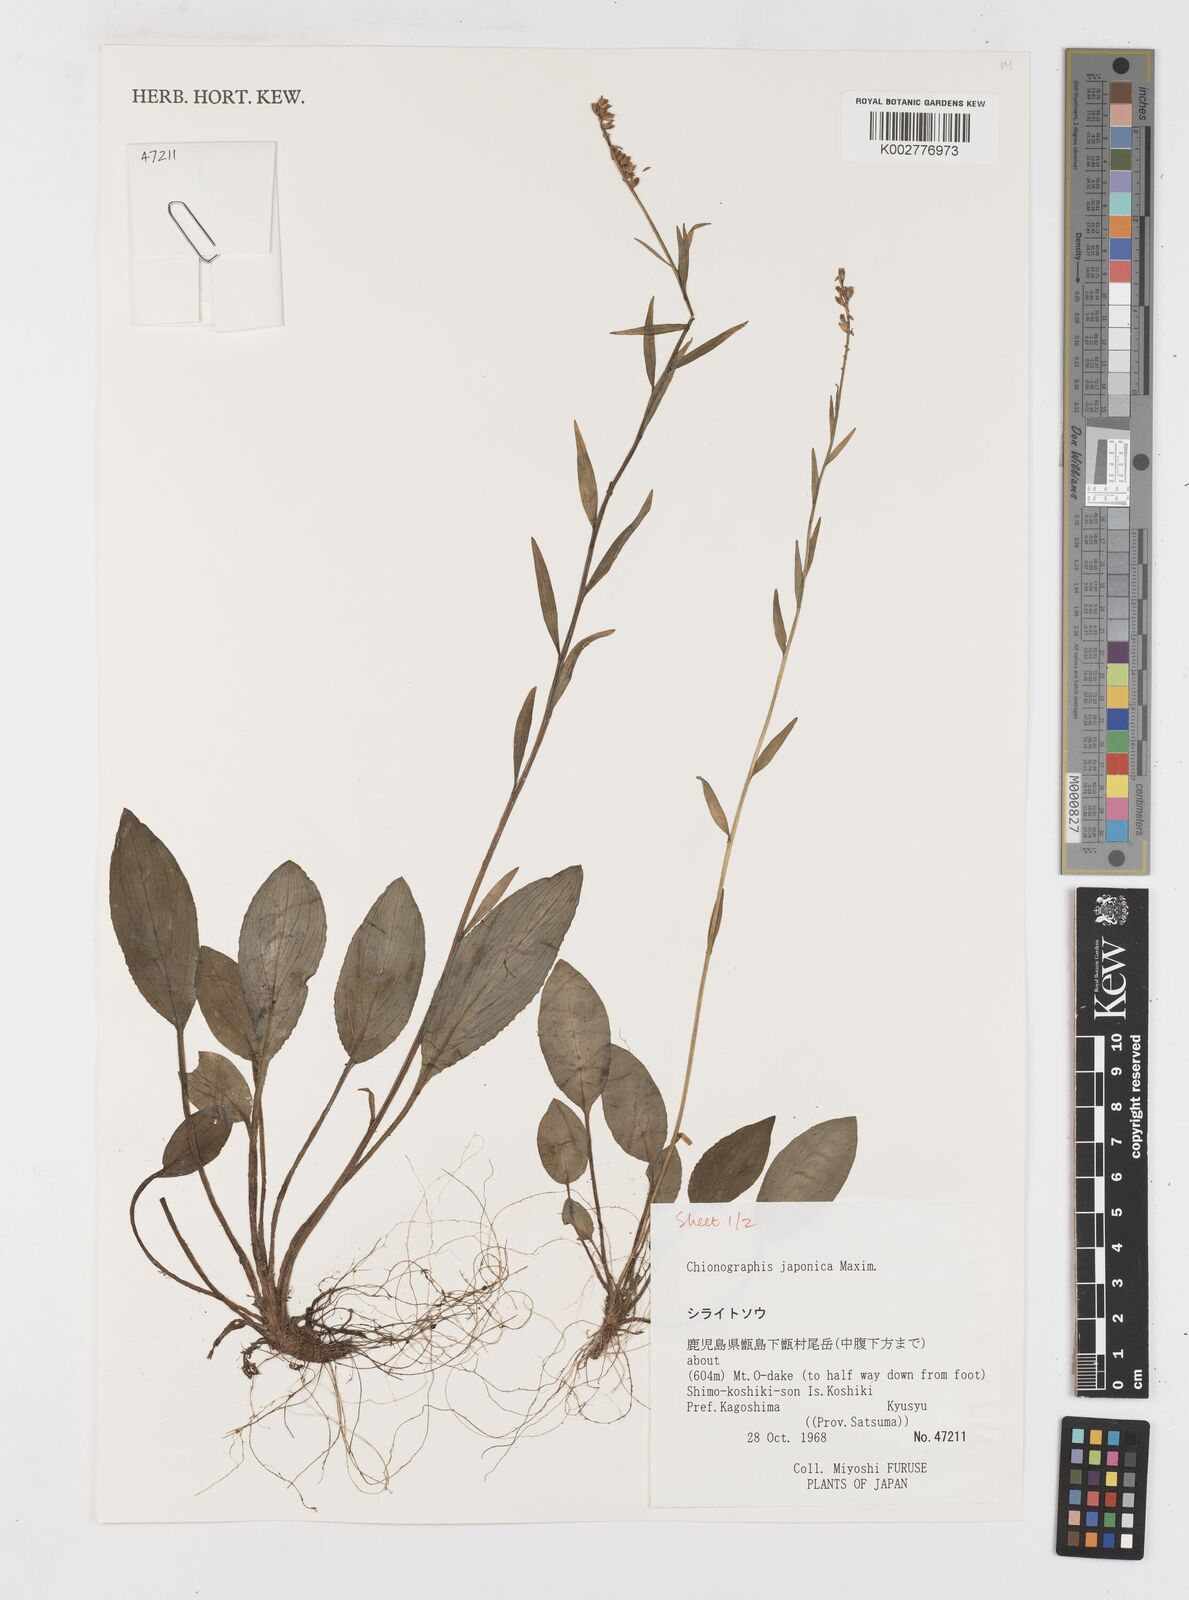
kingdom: Plantae
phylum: Tracheophyta
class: Liliopsida
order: Liliales
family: Melanthiaceae
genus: Chamaelirium
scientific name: Chamaelirium japonicum
